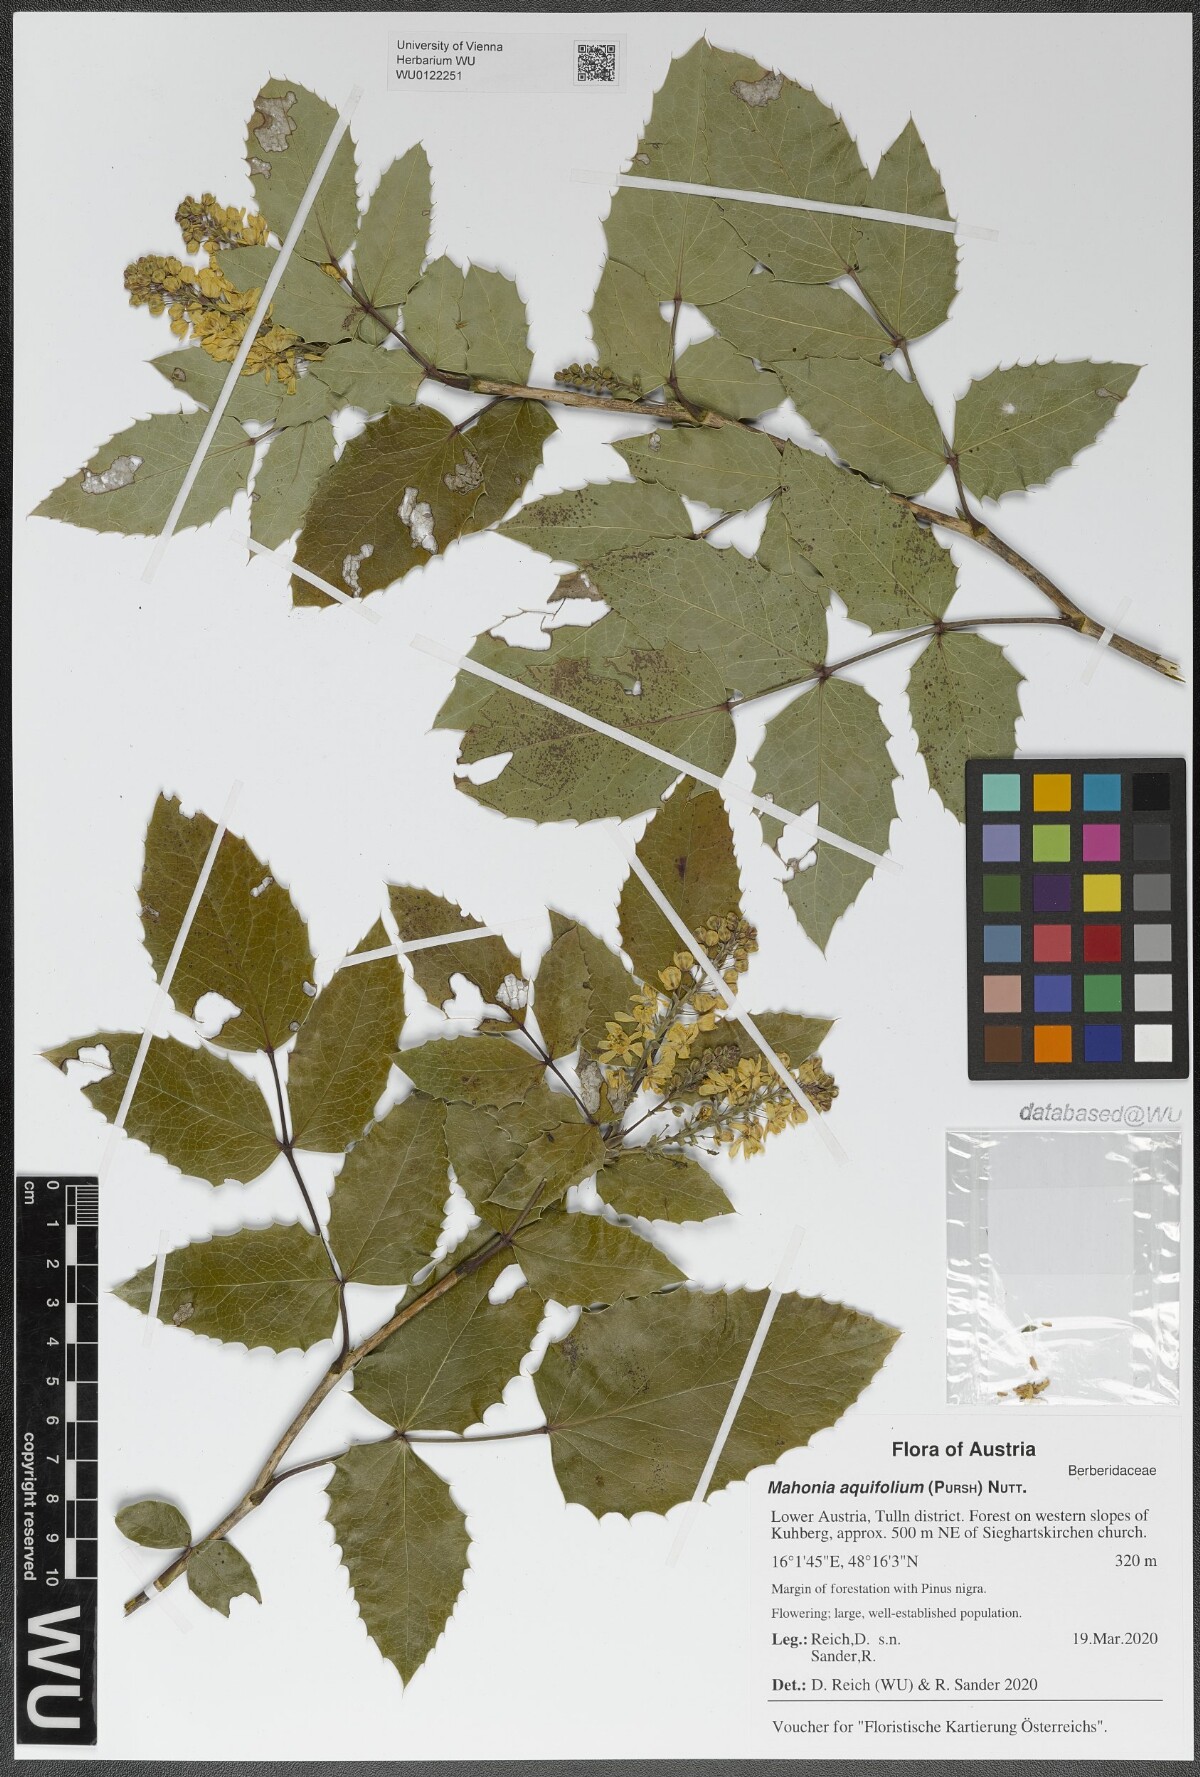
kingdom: Plantae
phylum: Tracheophyta
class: Magnoliopsida
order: Ranunculales
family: Berberidaceae
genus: Mahonia
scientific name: Mahonia aquifolium
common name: Oregon-grape
